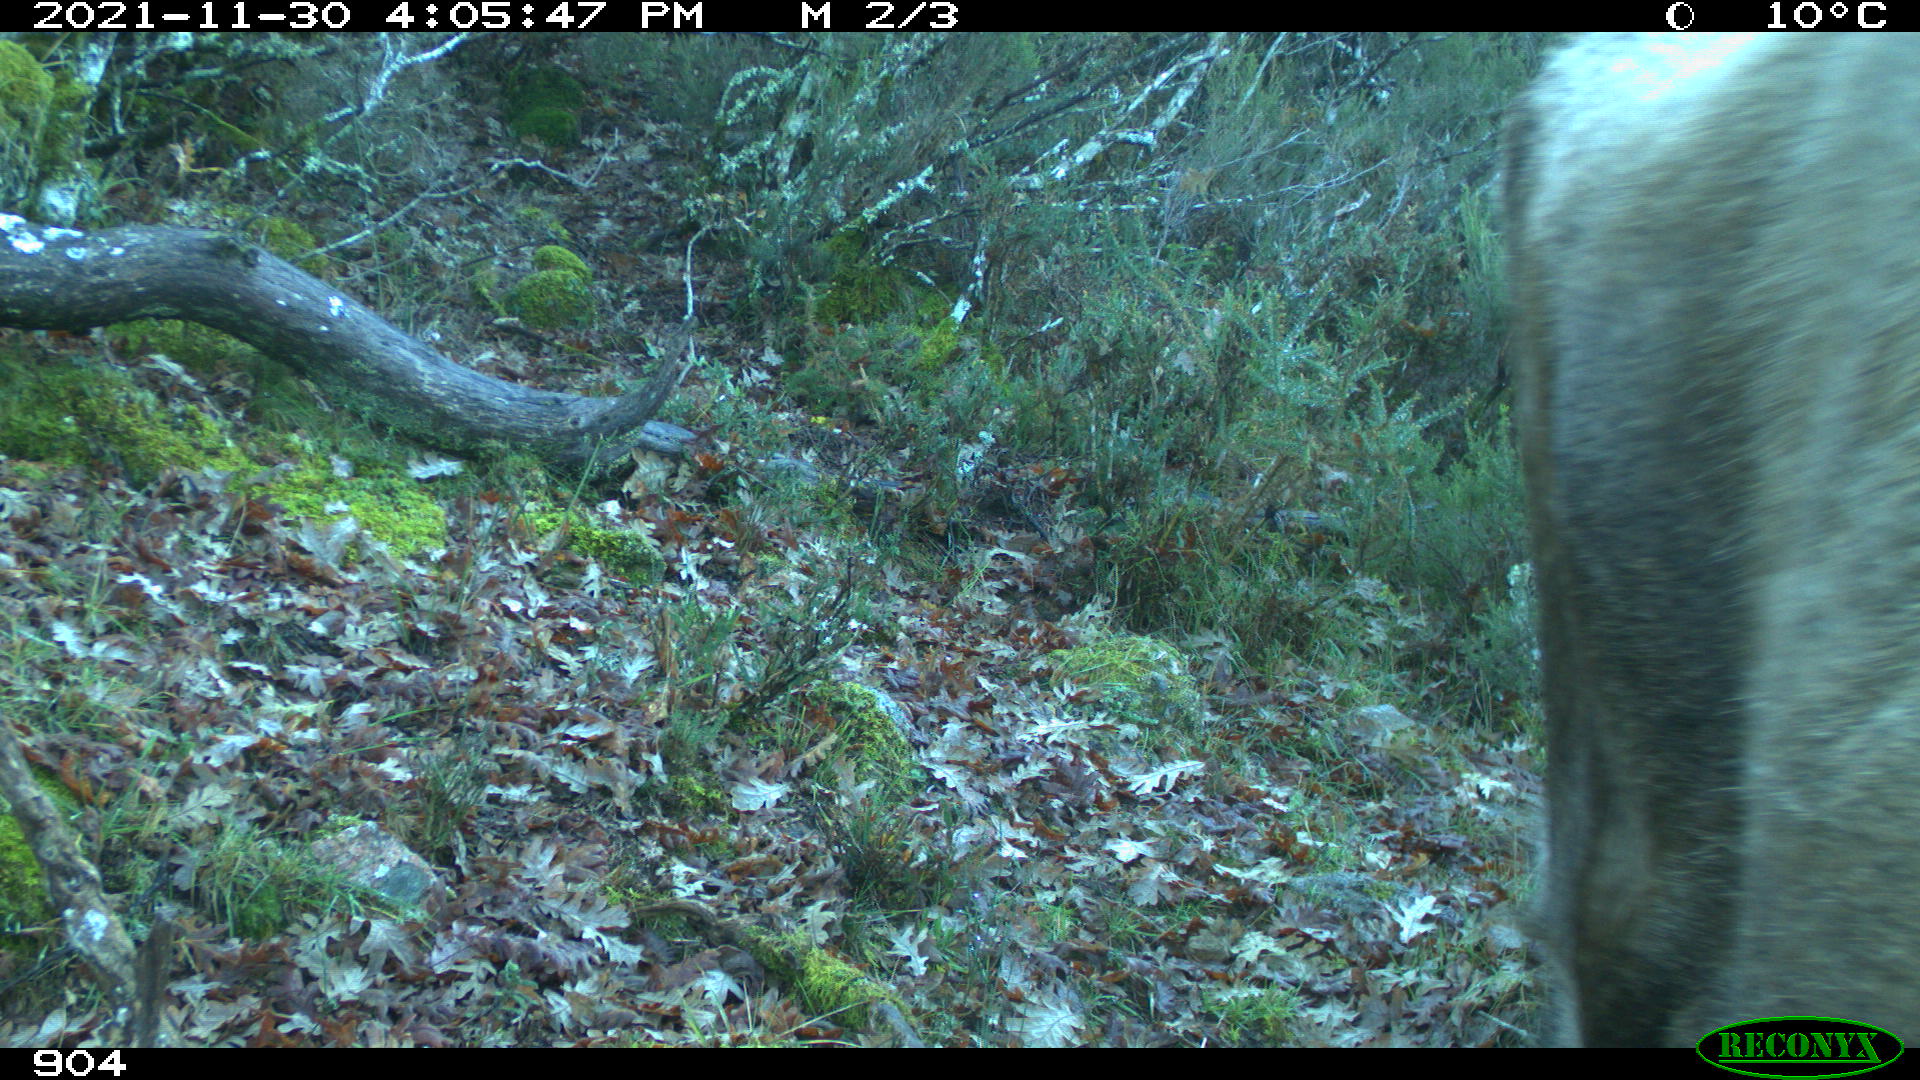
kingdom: Animalia
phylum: Chordata
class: Mammalia
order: Artiodactyla
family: Bovidae
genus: Bos
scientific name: Bos taurus
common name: Domesticated cattle
